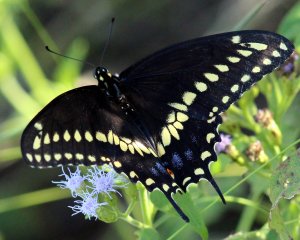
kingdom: Animalia
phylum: Arthropoda
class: Insecta
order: Lepidoptera
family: Papilionidae
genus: Papilio
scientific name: Papilio polyxenes
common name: Black Swallowtail
